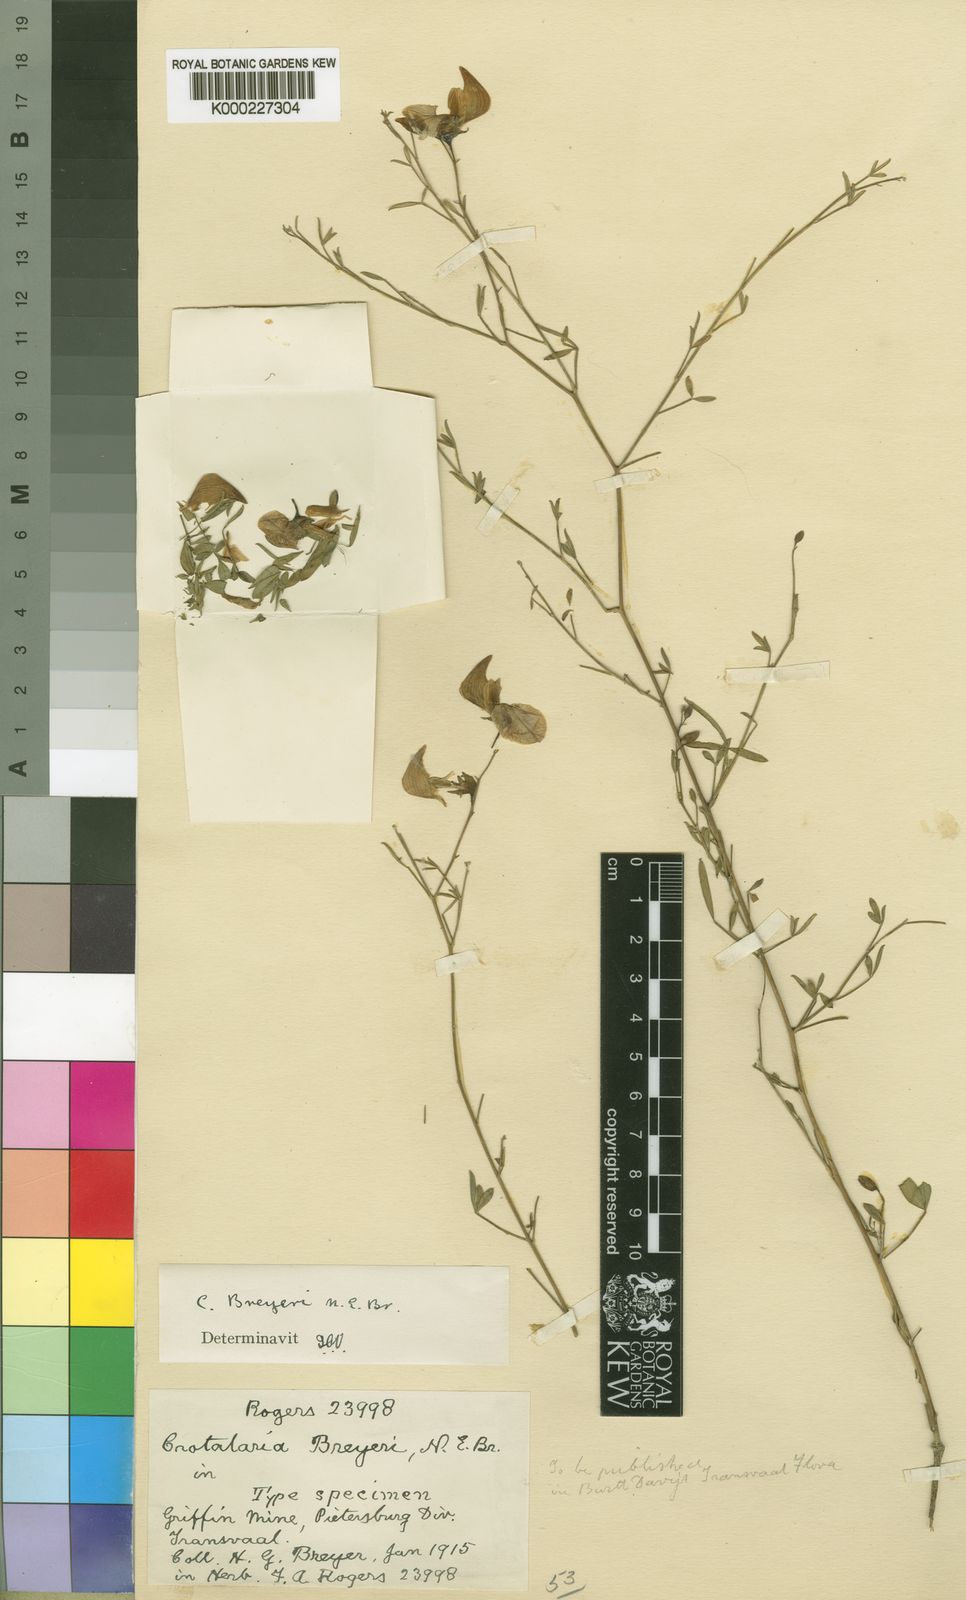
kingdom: Plantae
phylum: Tracheophyta
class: Magnoliopsida
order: Fabales
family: Fabaceae
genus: Crotalaria
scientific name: Crotalaria monteiroi
